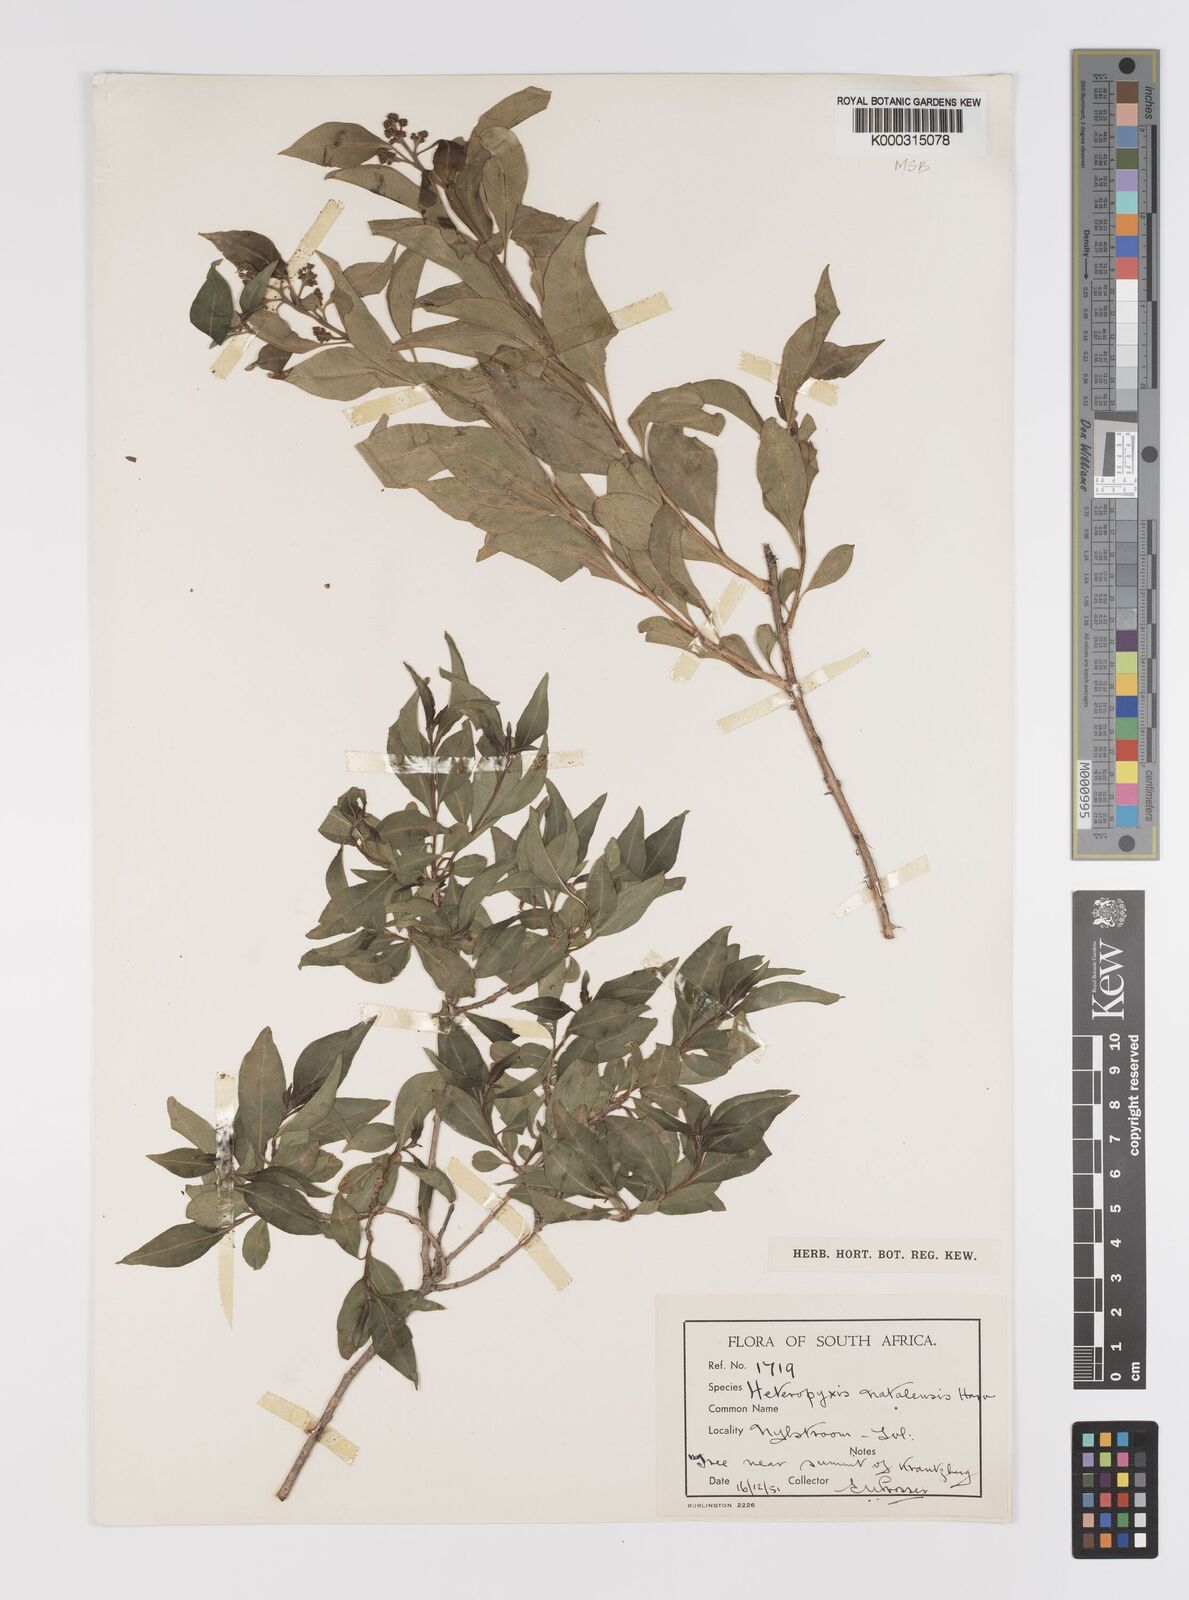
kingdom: Plantae
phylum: Tracheophyta
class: Magnoliopsida
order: Myrtales
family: Myrtaceae
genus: Heteropyxis
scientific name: Heteropyxis natalensis
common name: Lavender tree
